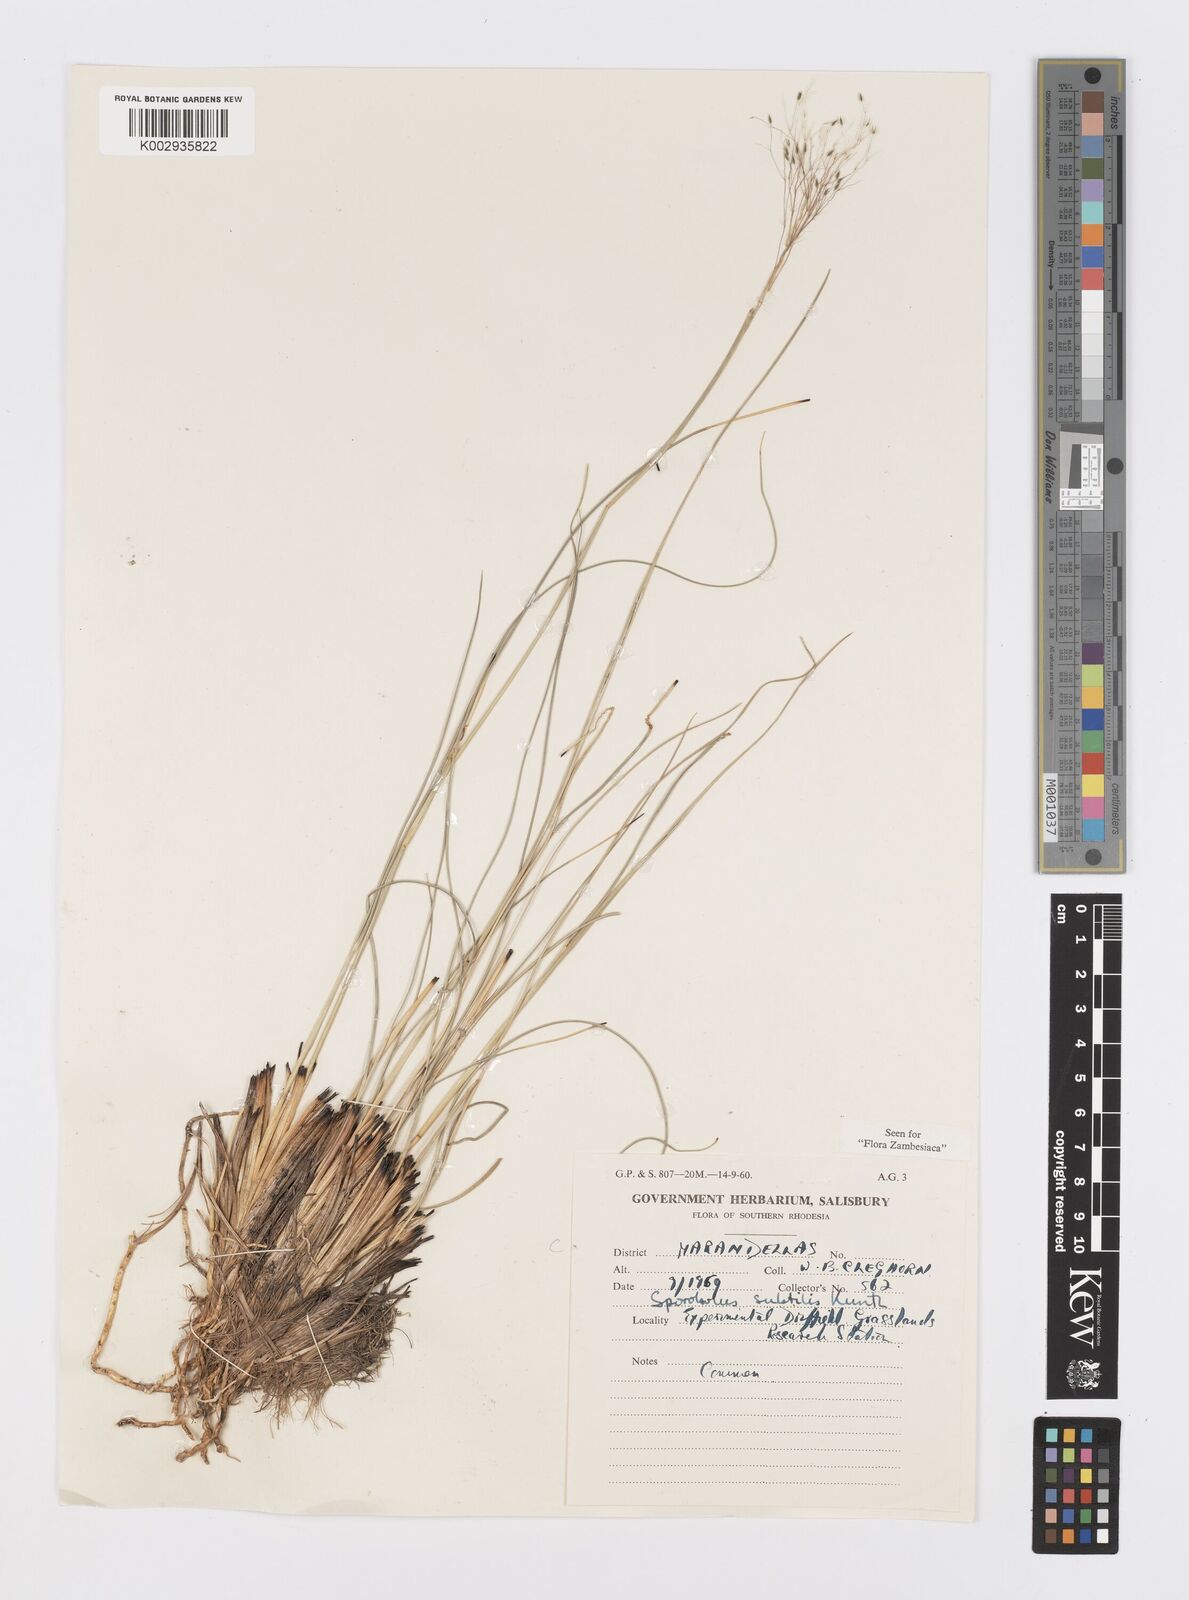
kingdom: Plantae
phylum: Tracheophyta
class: Liliopsida
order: Poales
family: Poaceae
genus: Sporobolus
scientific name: Sporobolus subtilis
